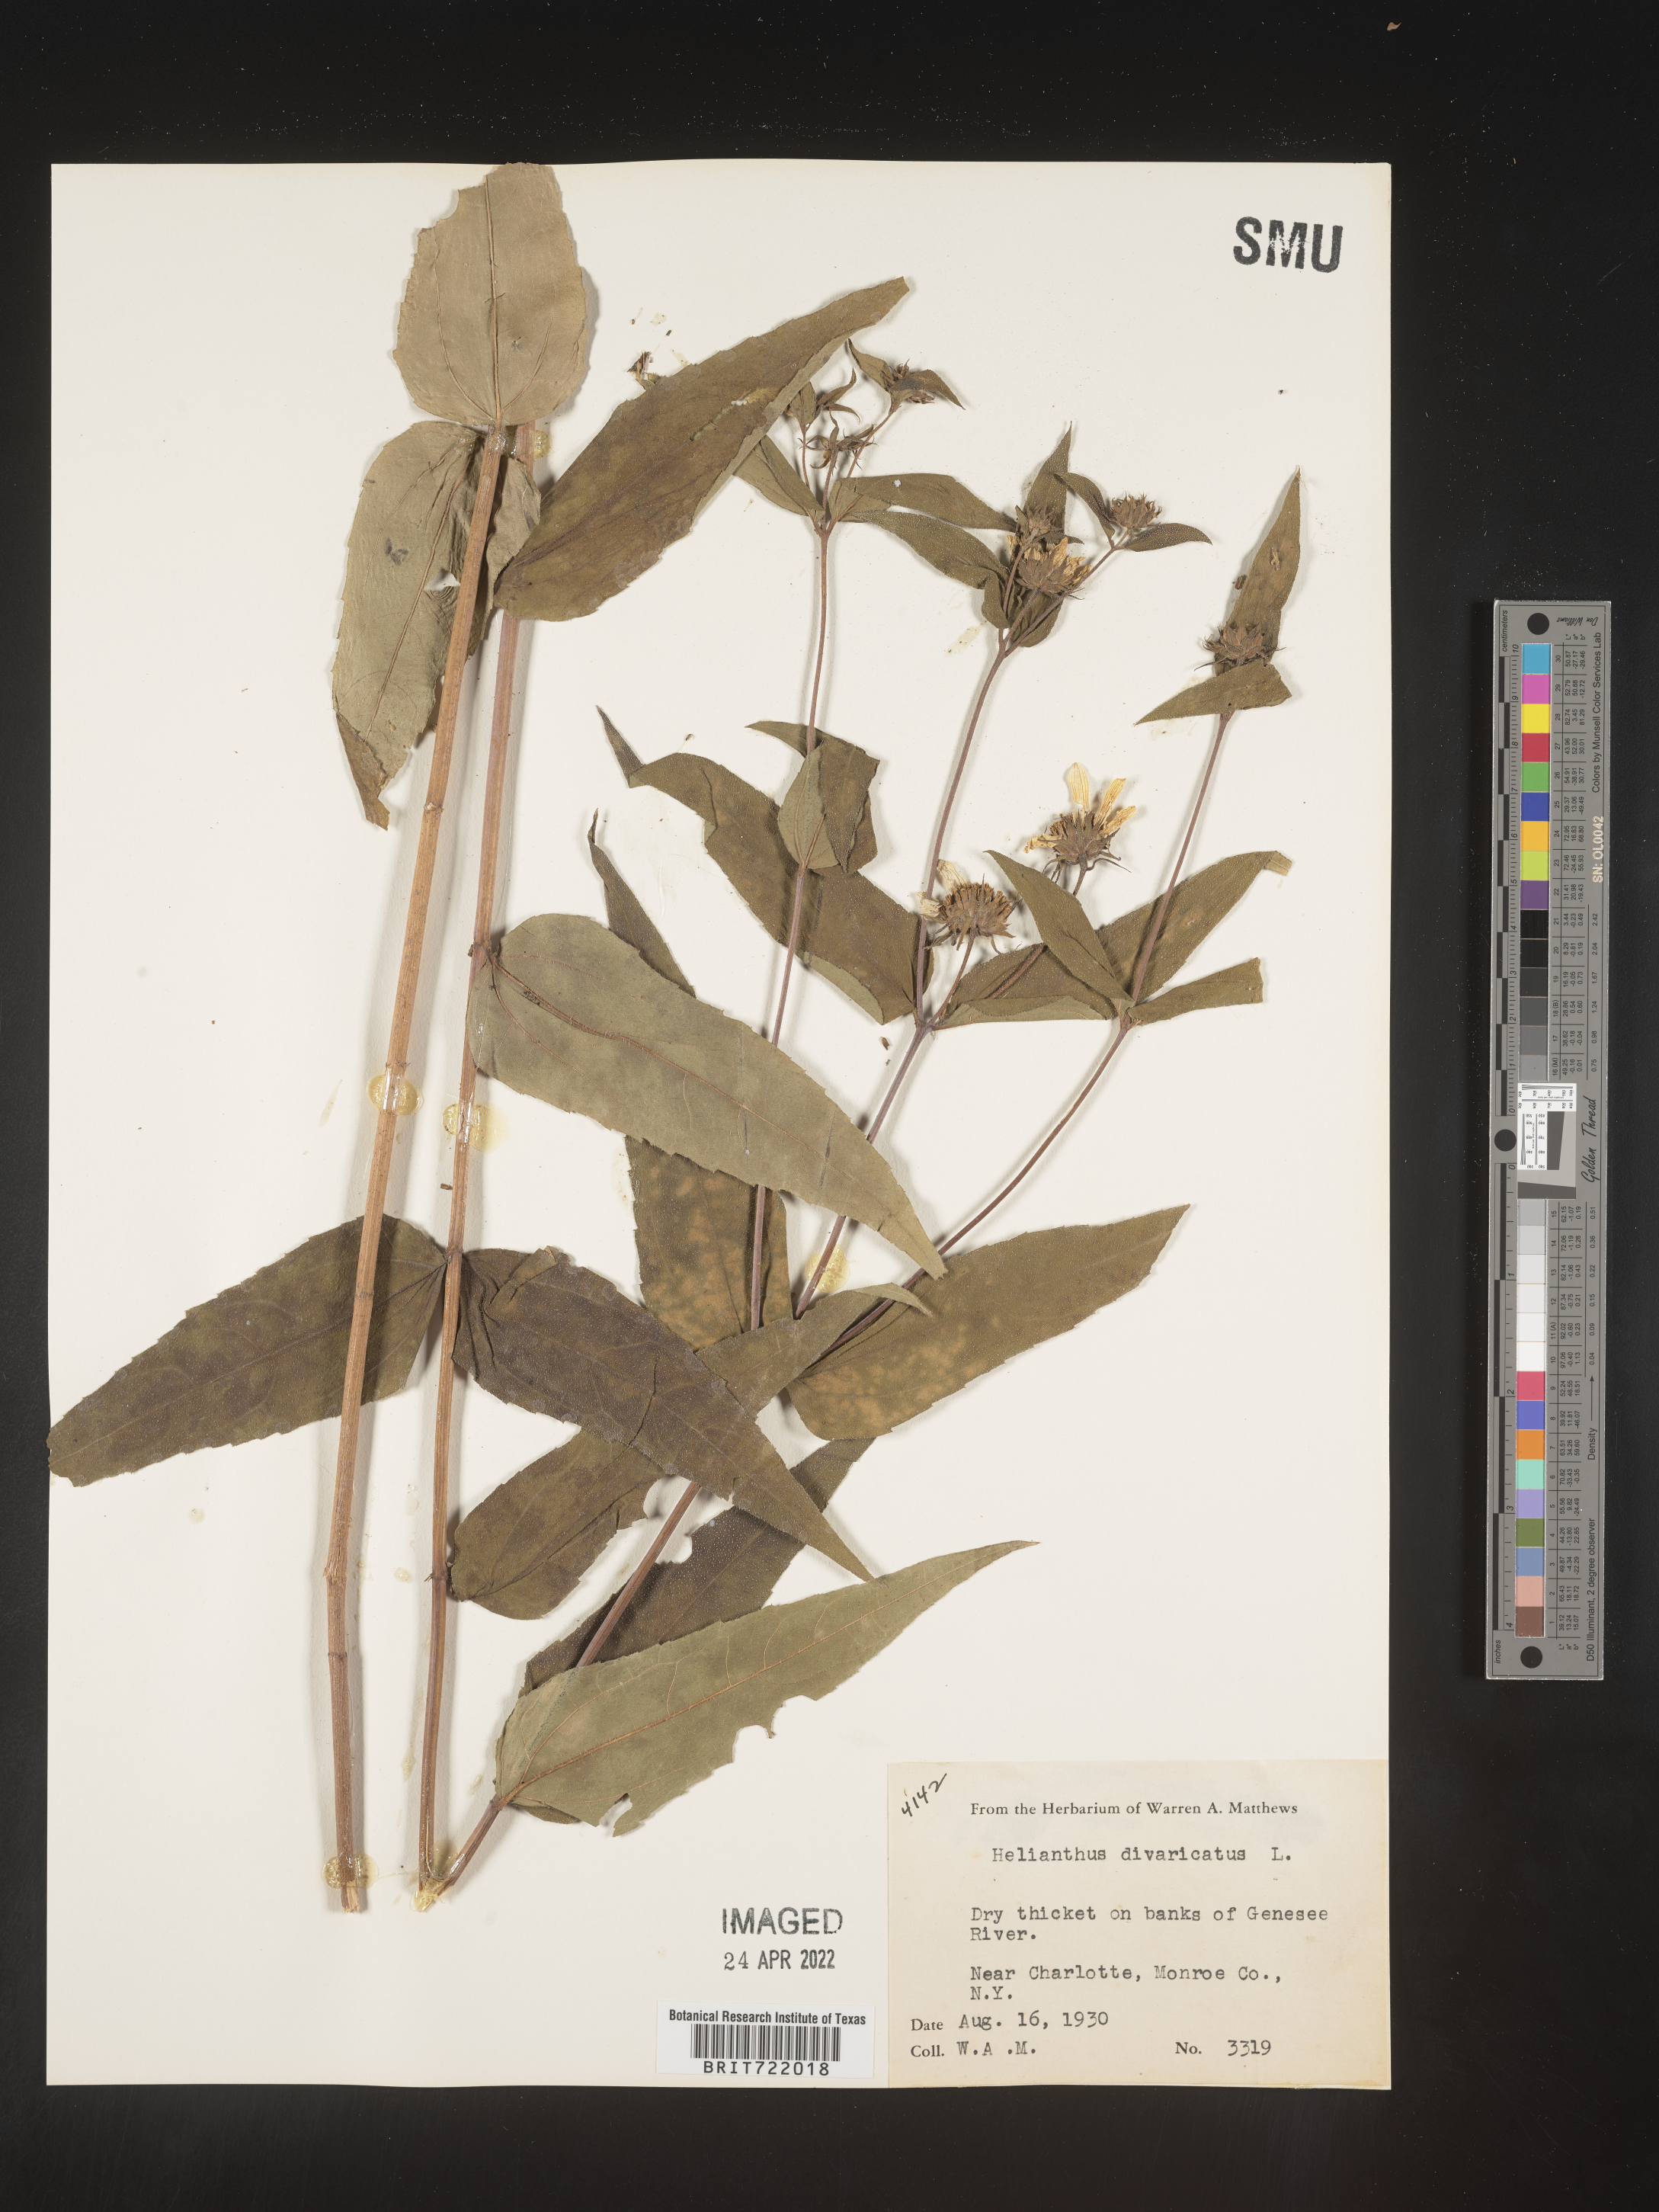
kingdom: Plantae
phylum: Tracheophyta
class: Magnoliopsida
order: Asterales
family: Asteraceae
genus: Helianthus
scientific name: Helianthus divaricatus
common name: Divergent sunflower
